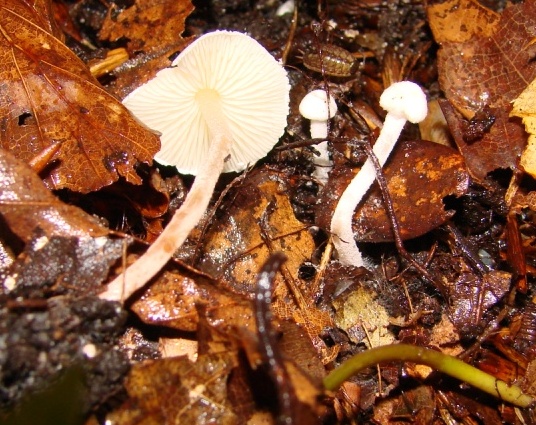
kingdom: Fungi
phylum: Basidiomycota
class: Agaricomycetes
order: Agaricales
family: Agaricaceae
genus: Cystolepiota
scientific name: Cystolepiota seminuda
